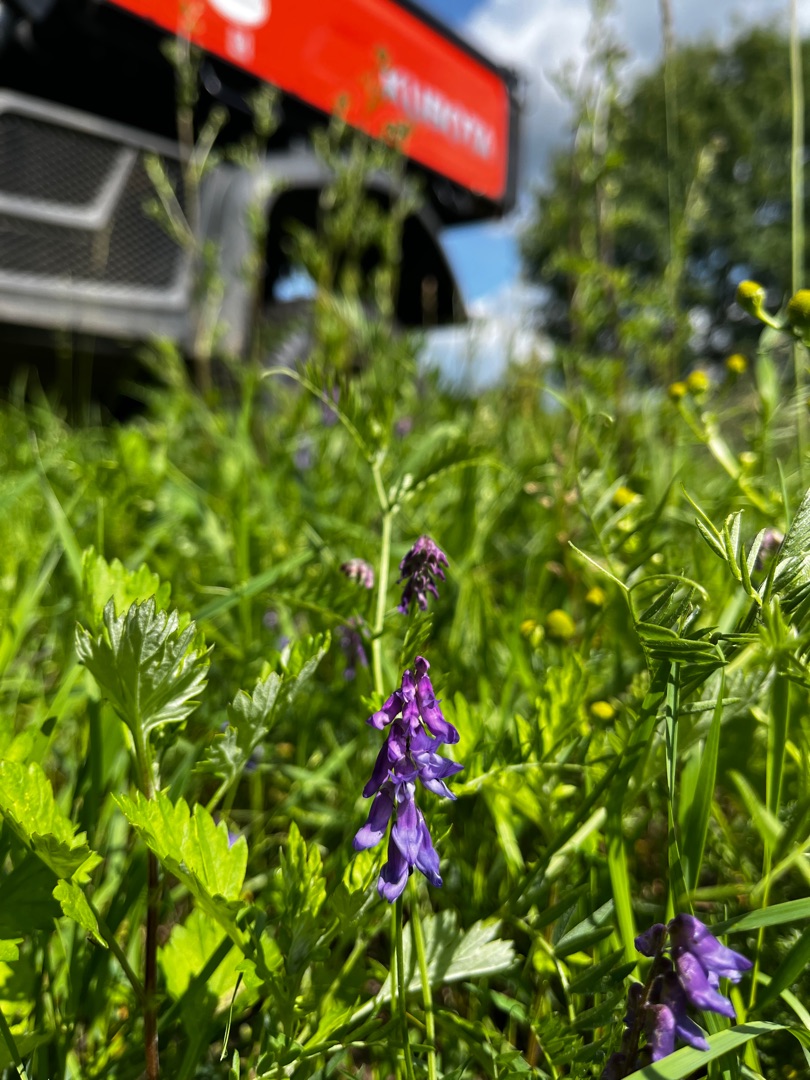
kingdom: Plantae
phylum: Tracheophyta
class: Magnoliopsida
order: Fabales
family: Fabaceae
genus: Vicia
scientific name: Vicia cracca
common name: Muse-vikke
